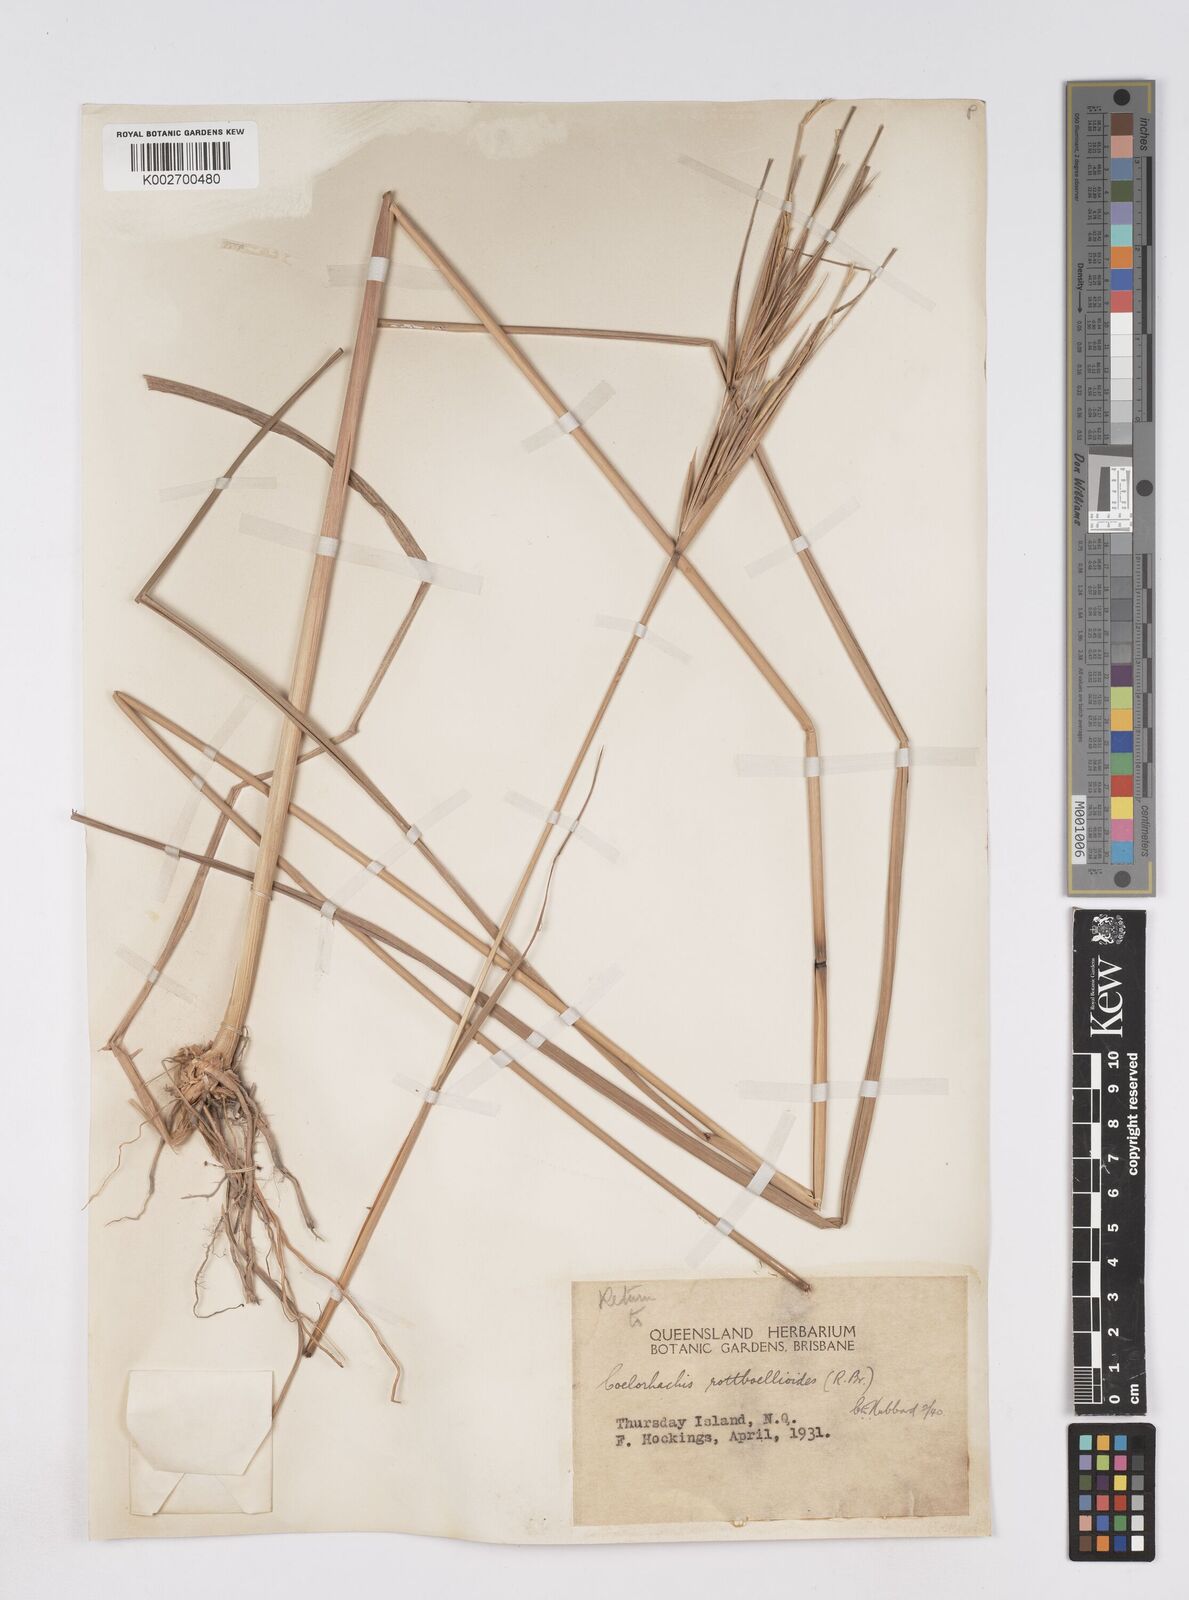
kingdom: Plantae
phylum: Tracheophyta
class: Liliopsida
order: Poales
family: Poaceae
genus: Rottboellia
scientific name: Rottboellia rottboellioides
